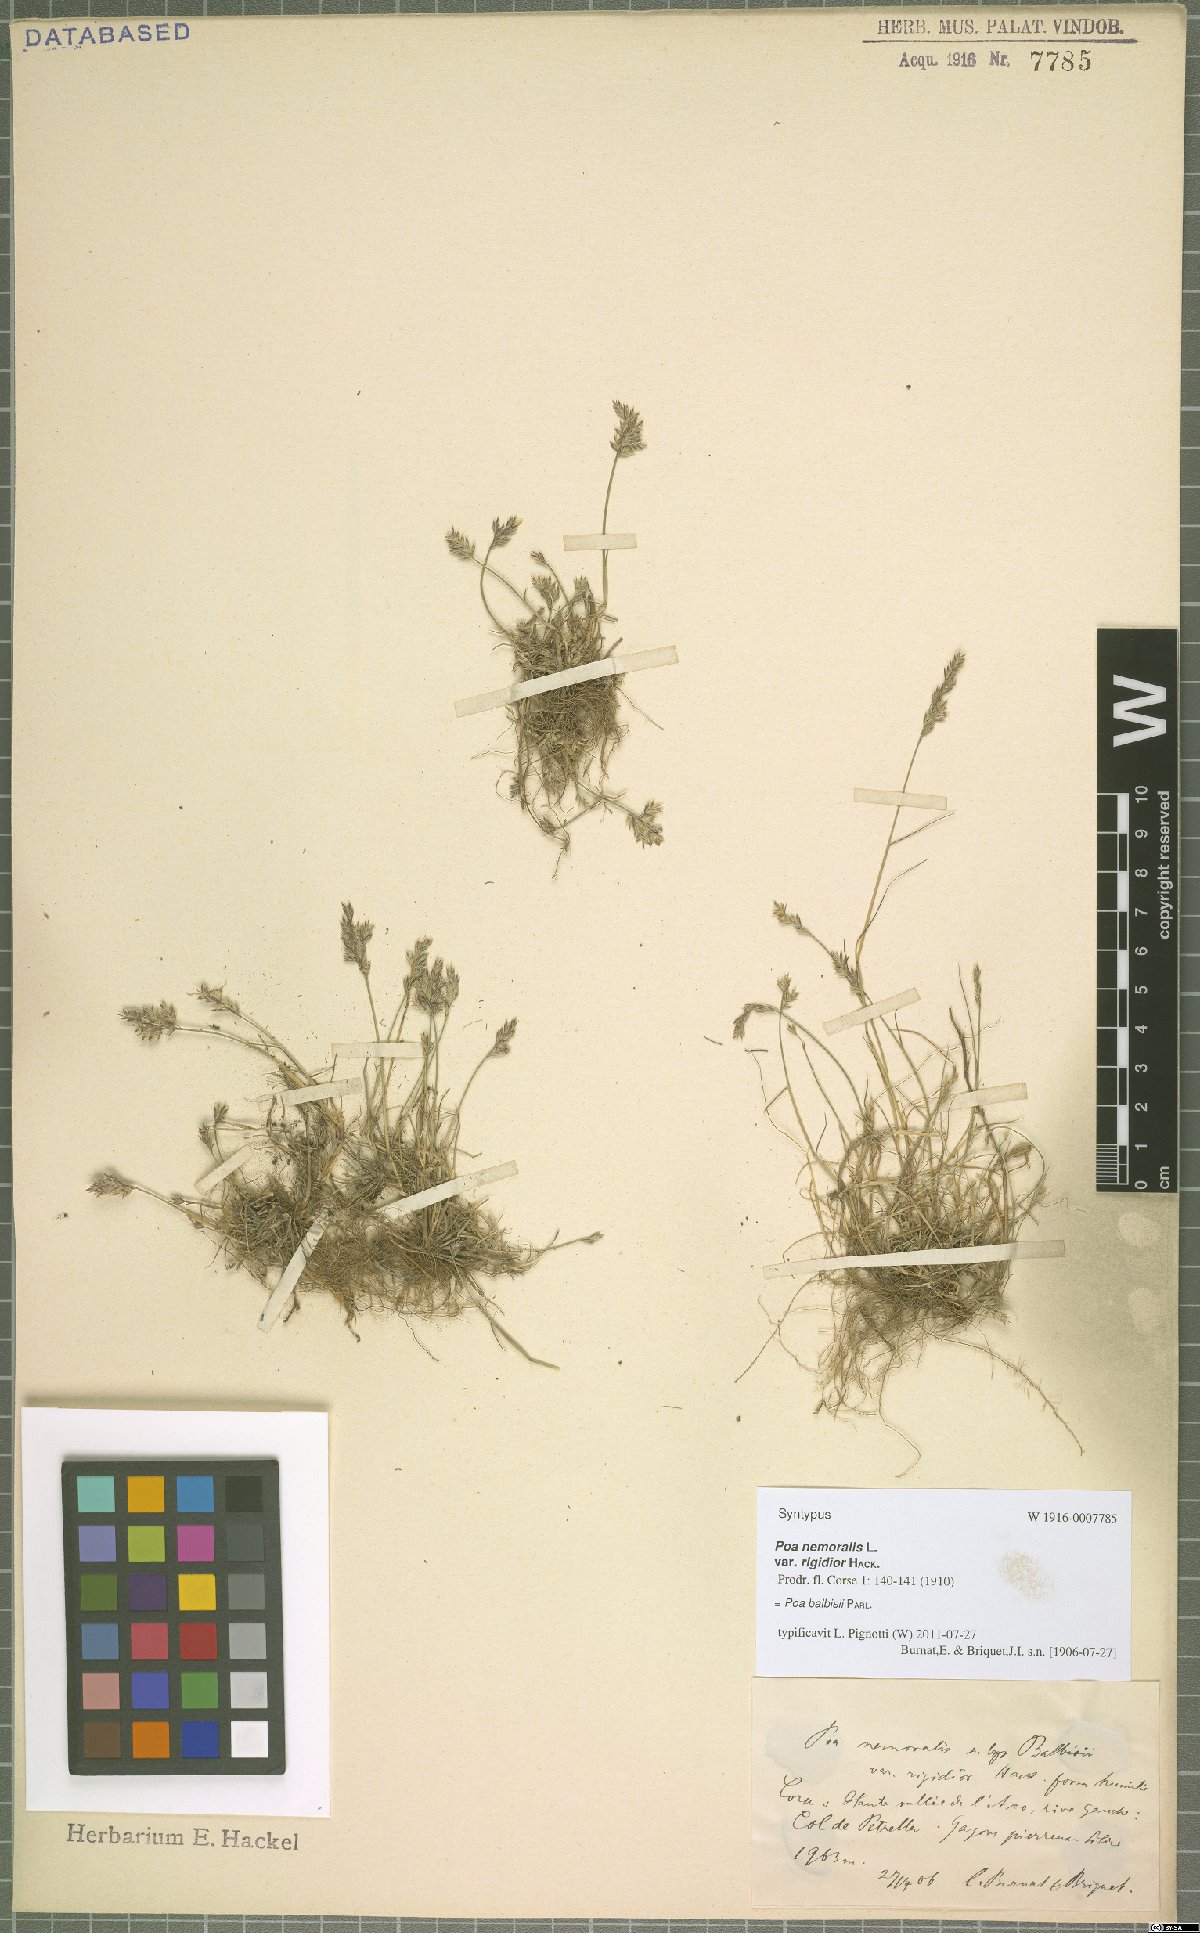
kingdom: Plantae
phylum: Tracheophyta
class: Liliopsida
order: Poales
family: Poaceae
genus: Poa
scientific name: Poa balbisii
